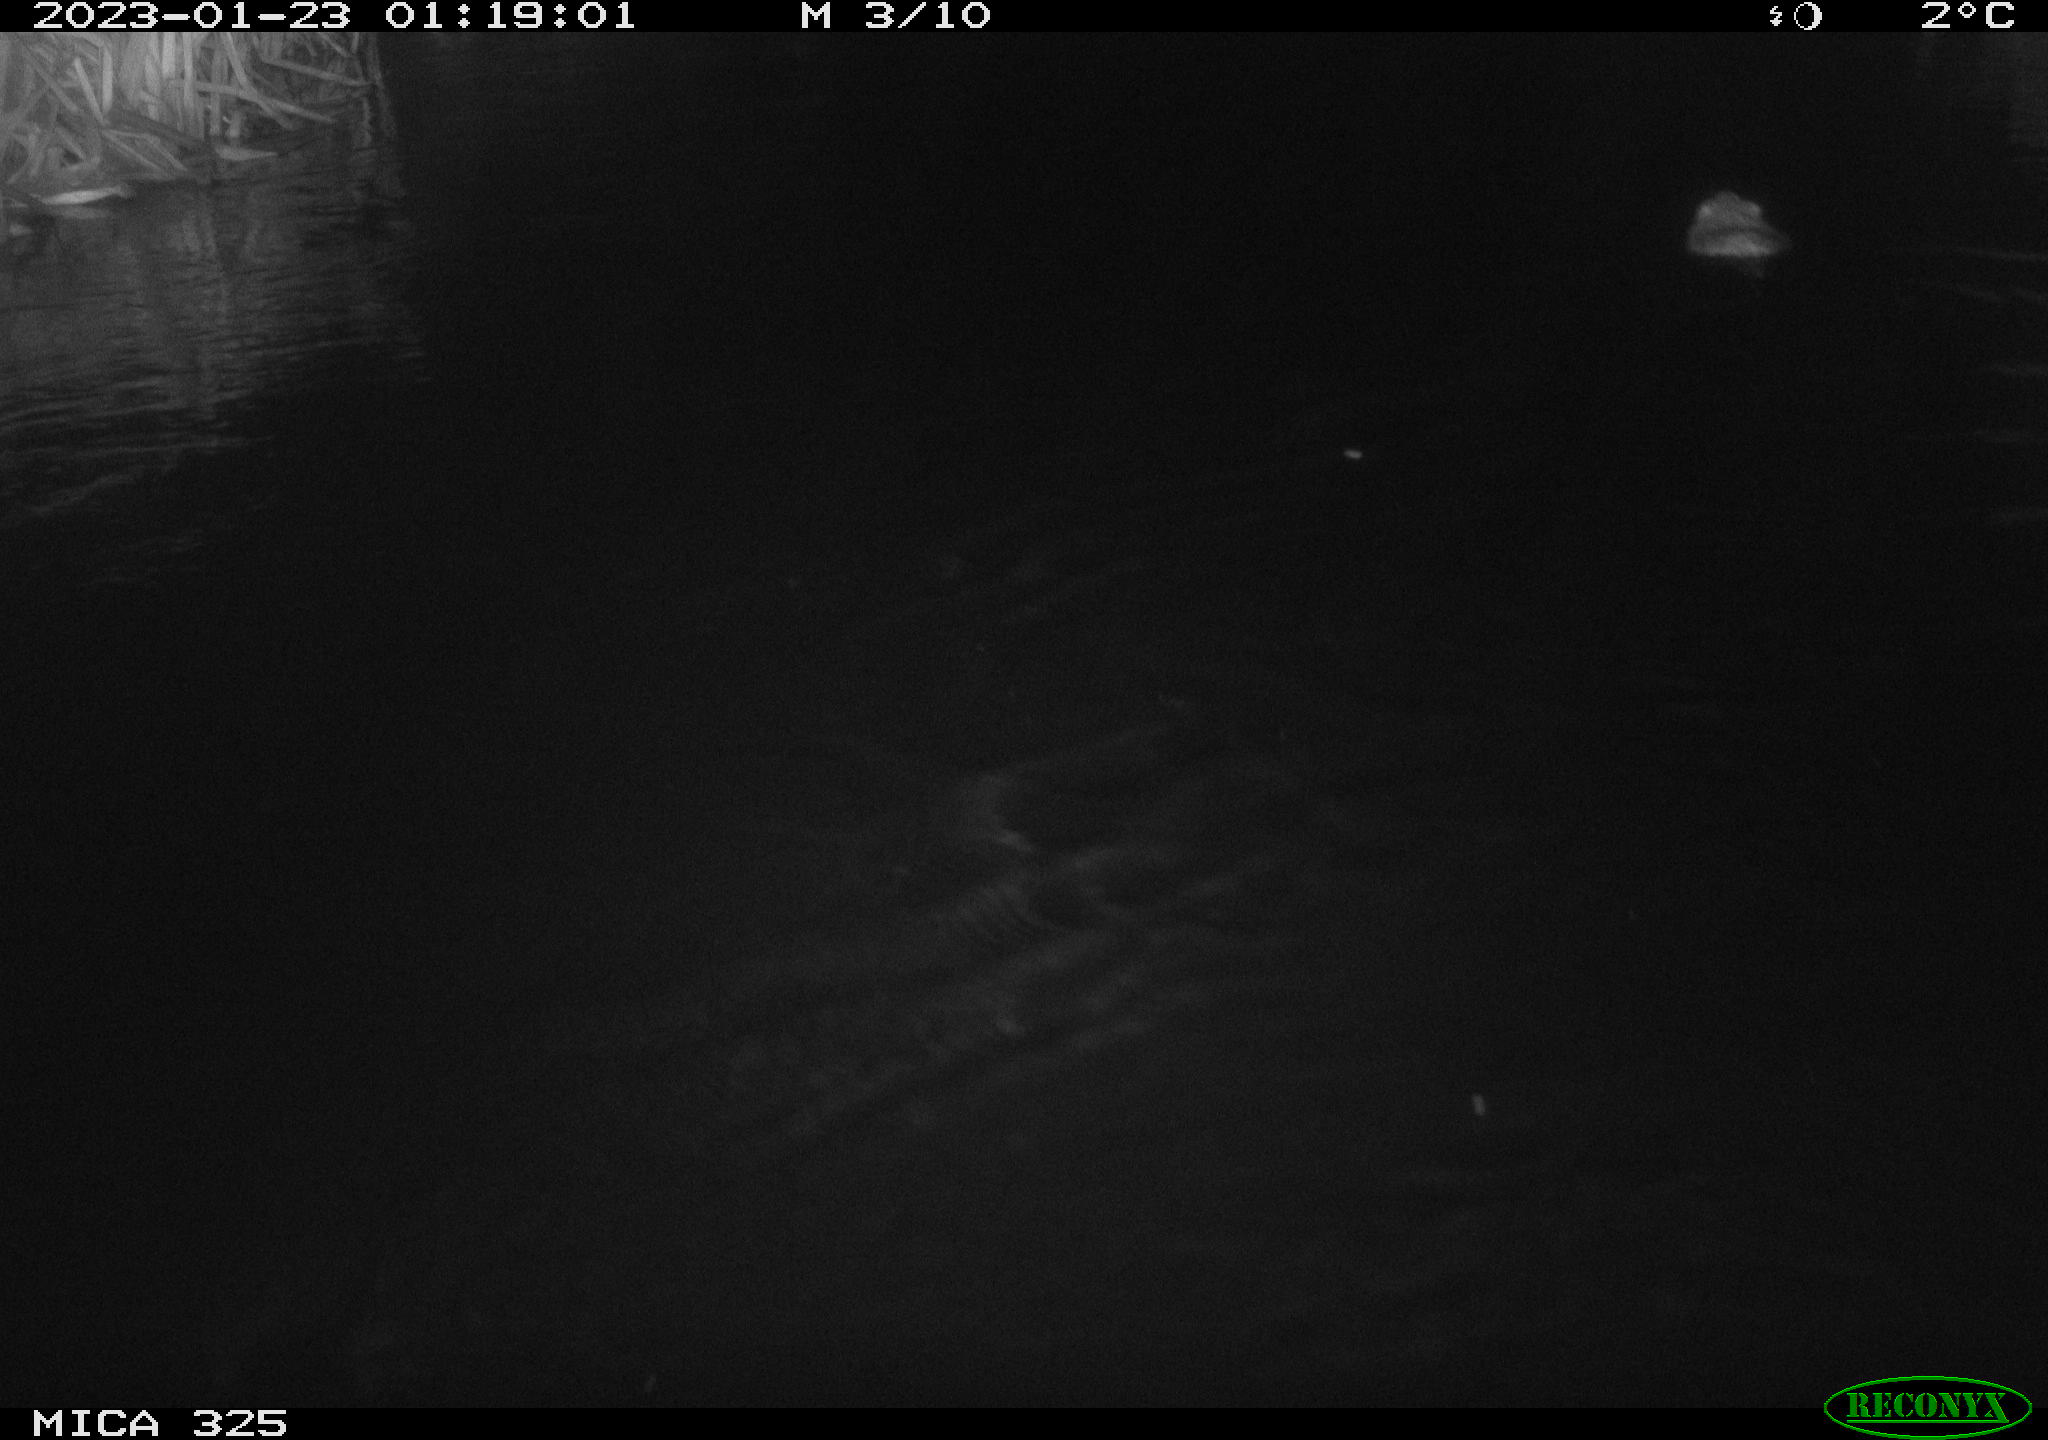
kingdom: Animalia
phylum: Chordata
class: Mammalia
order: Rodentia
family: Cricetidae
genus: Ondatra
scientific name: Ondatra zibethicus
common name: Muskrat
